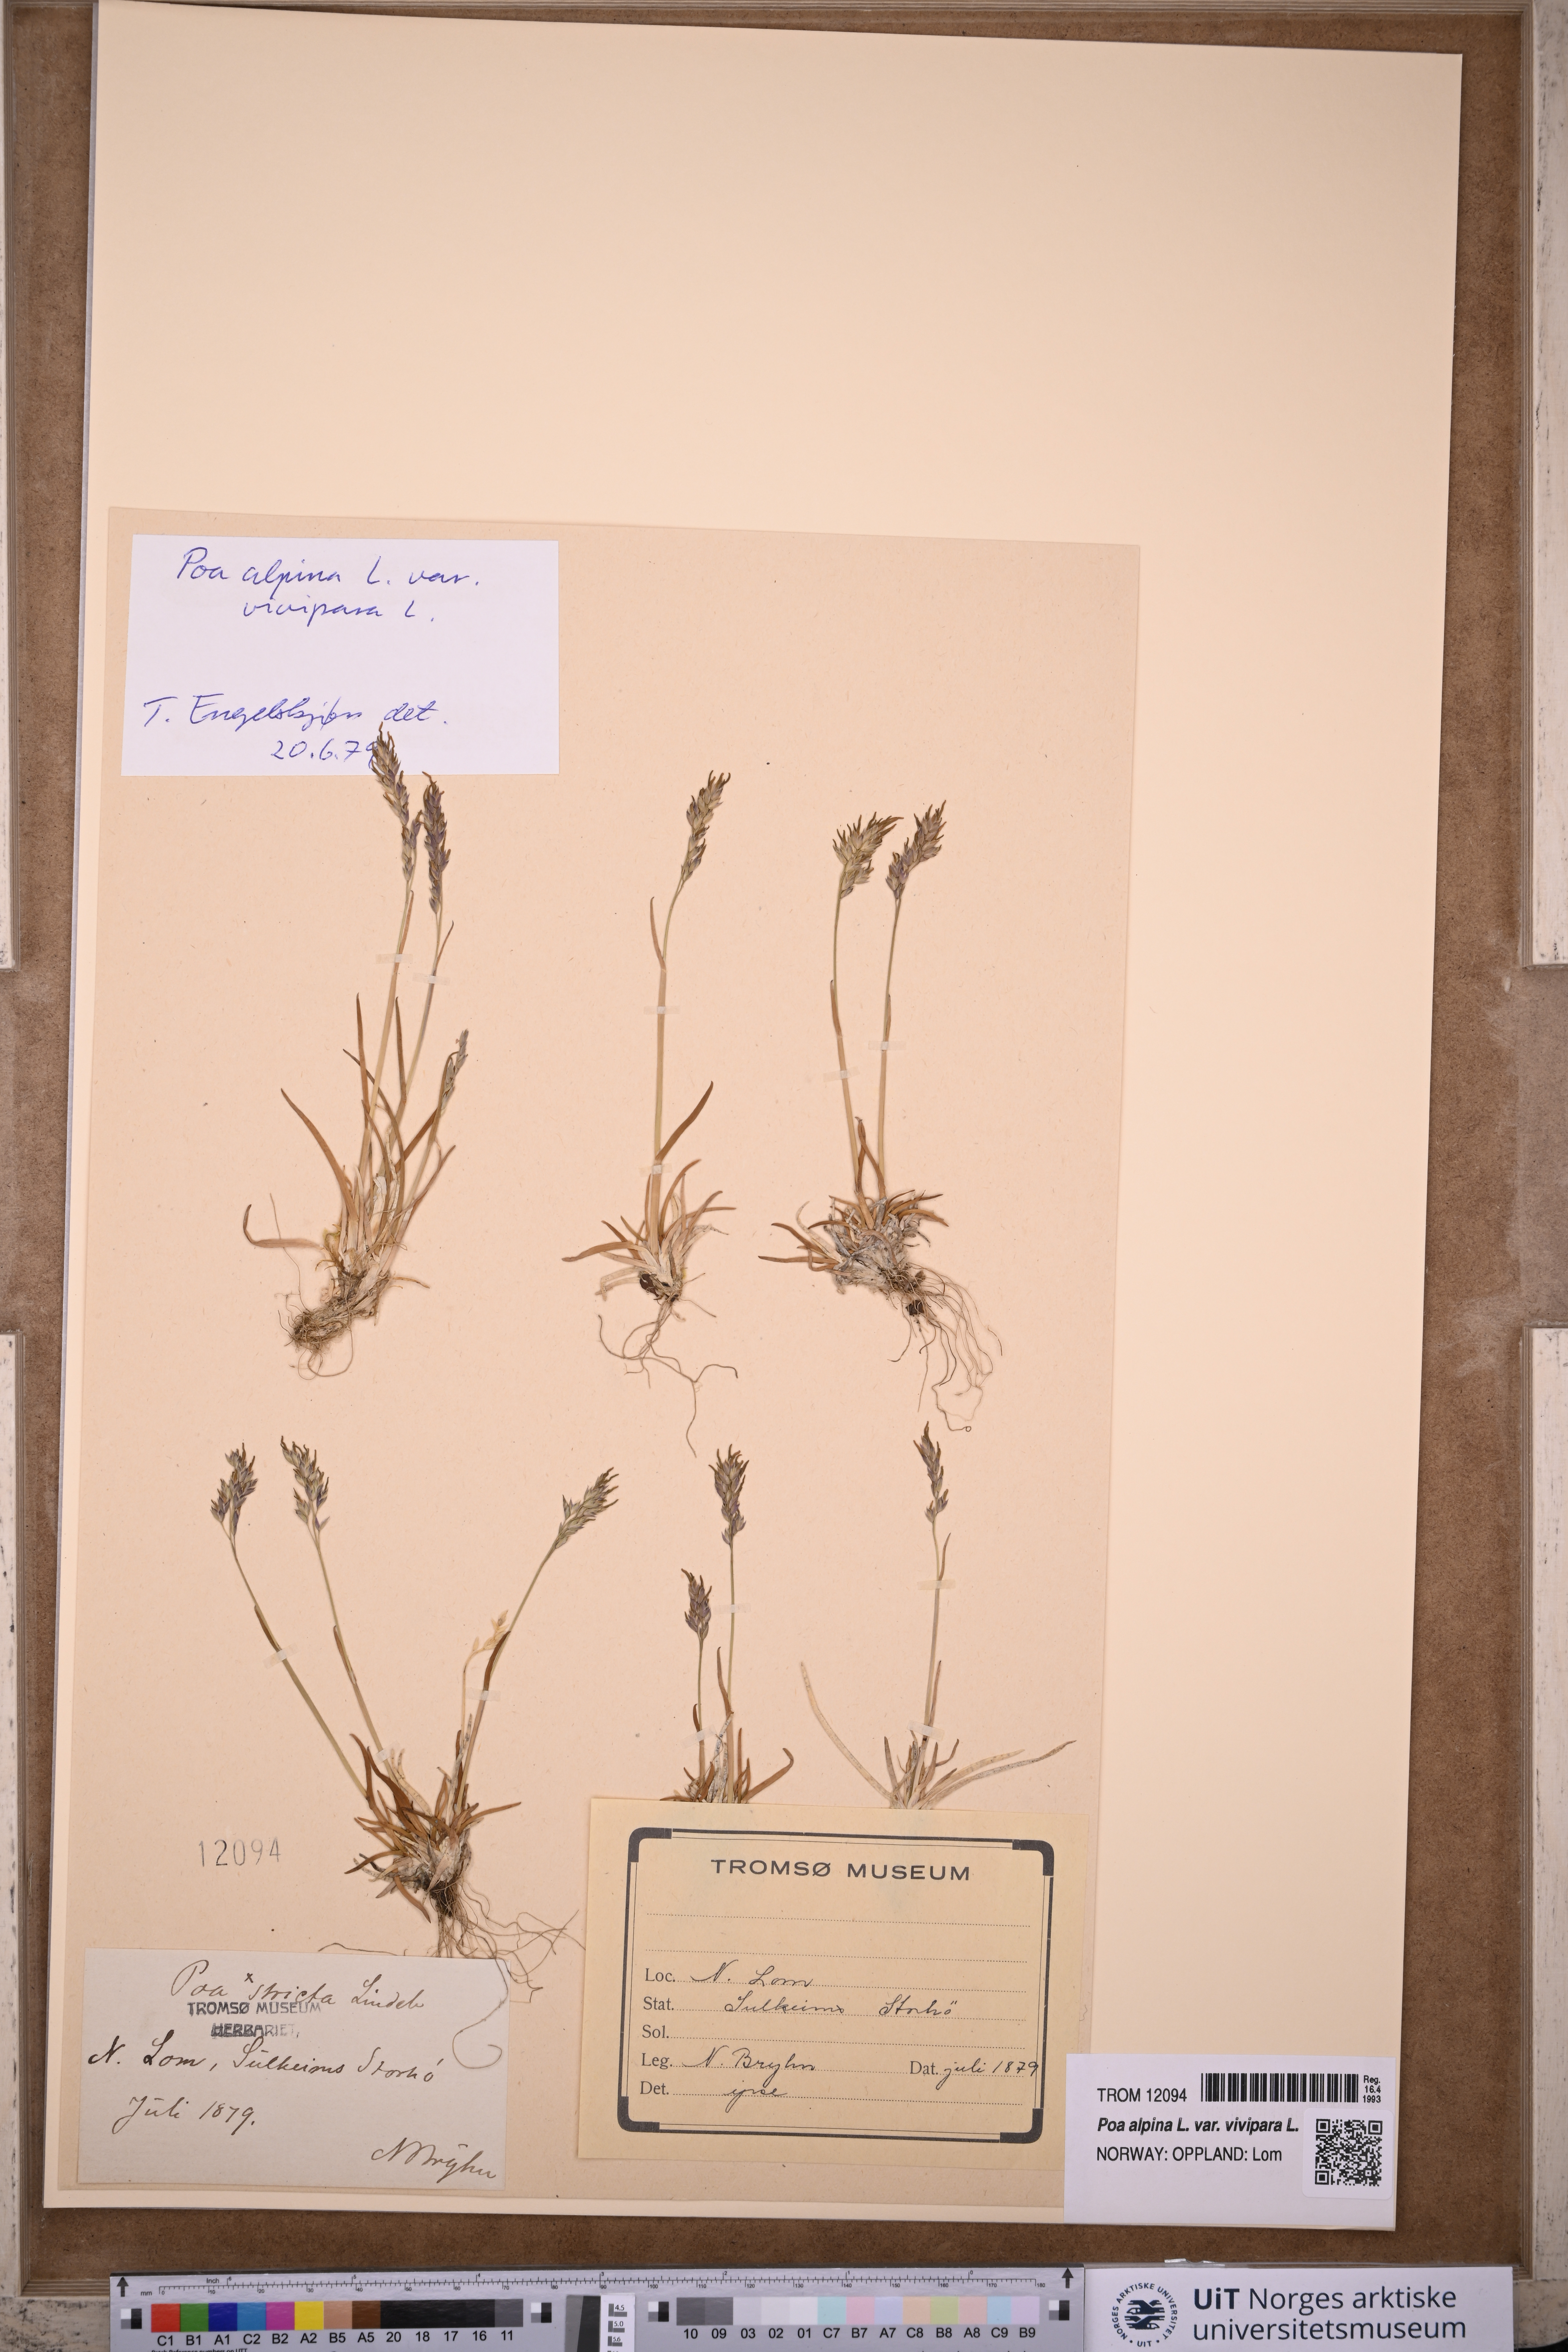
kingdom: Plantae
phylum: Tracheophyta
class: Liliopsida
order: Poales
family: Poaceae
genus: Poa
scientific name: Poa alpina
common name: Alpine bluegrass
